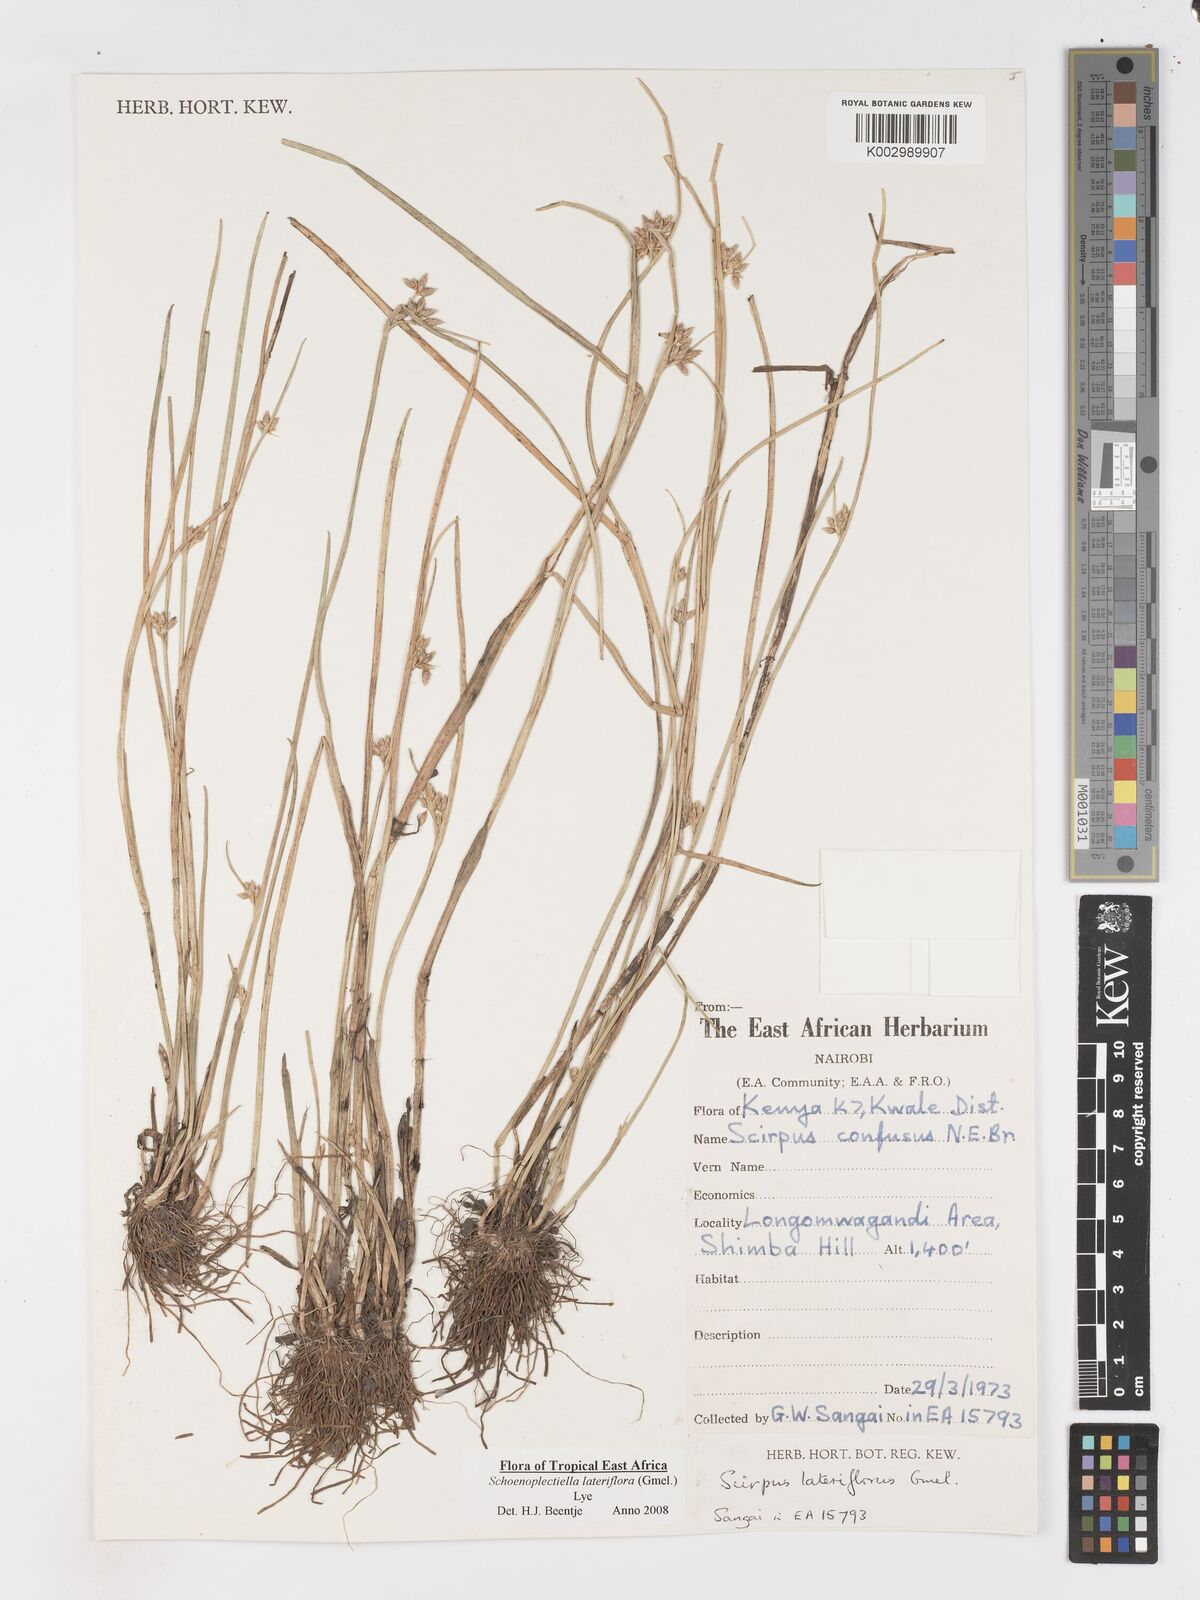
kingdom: Plantae
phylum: Tracheophyta
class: Liliopsida
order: Poales
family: Cyperaceae
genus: Schoenoplectiella
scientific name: Schoenoplectiella lateriflora
